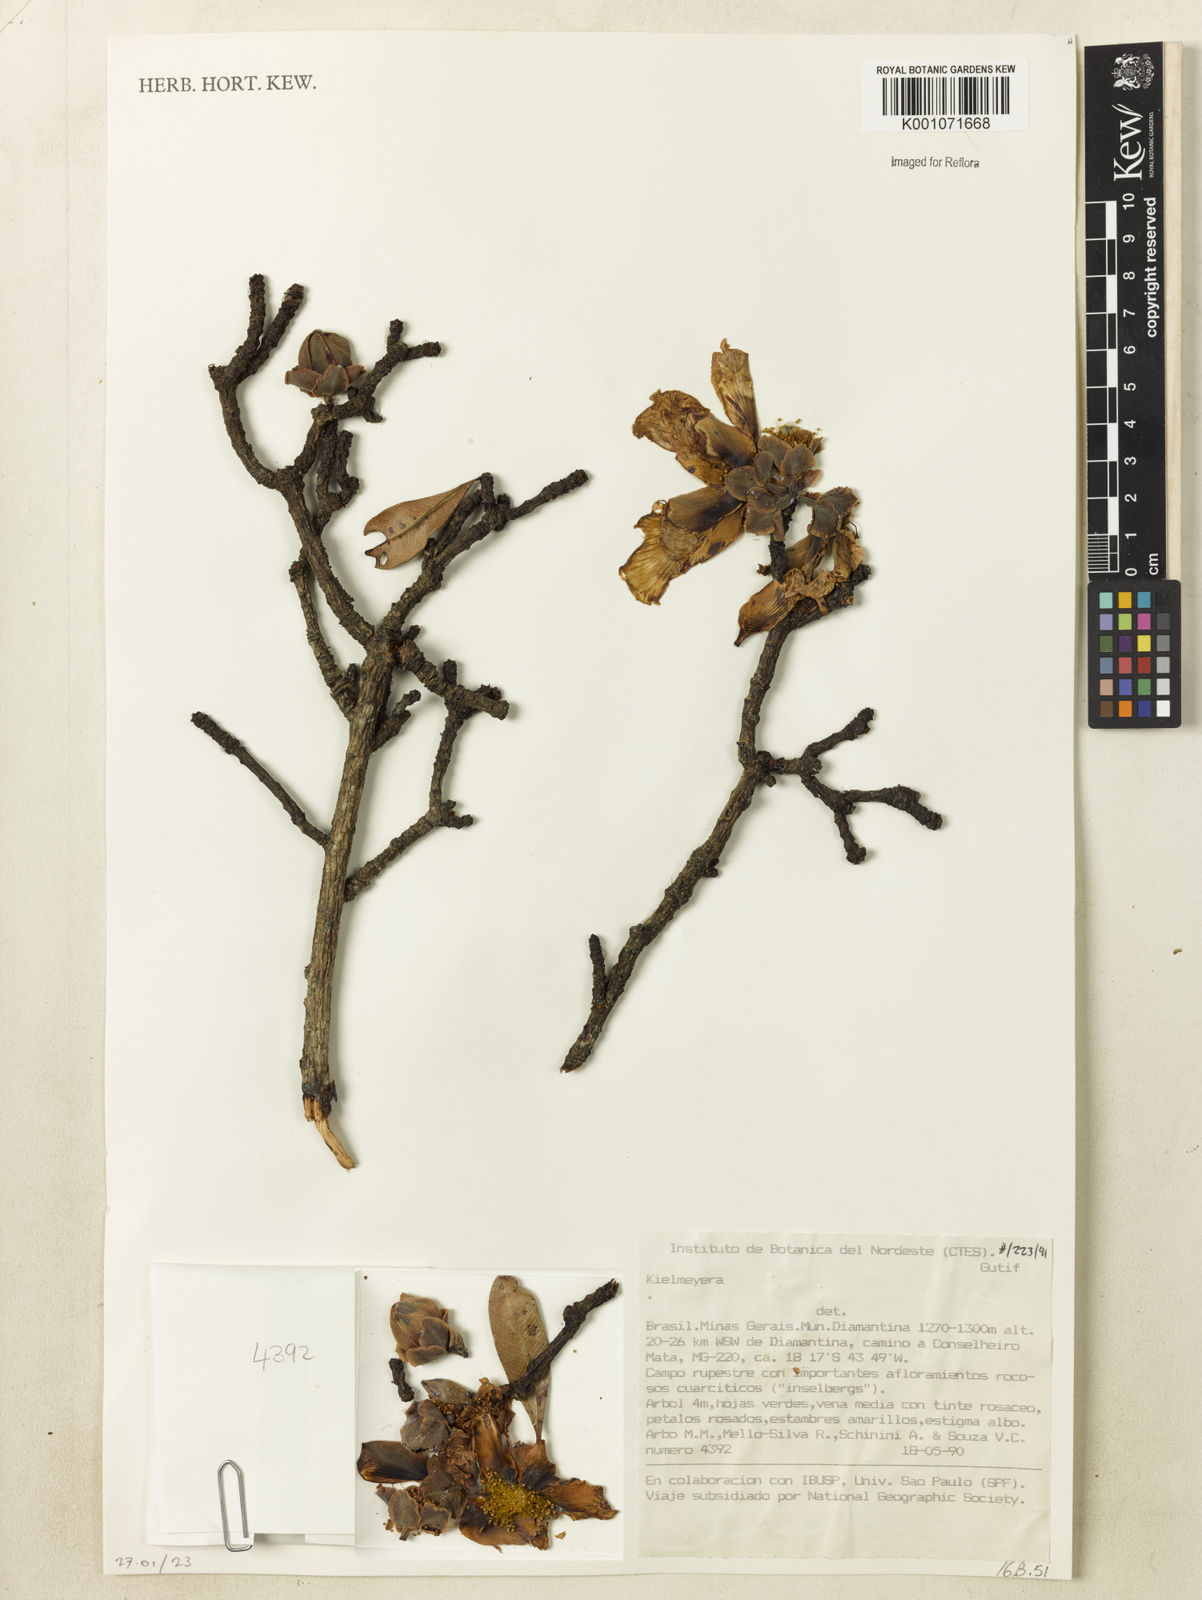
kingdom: Plantae
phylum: Tracheophyta
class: Magnoliopsida
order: Malpighiales
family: Calophyllaceae
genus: Kielmeyera
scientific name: Kielmeyera
